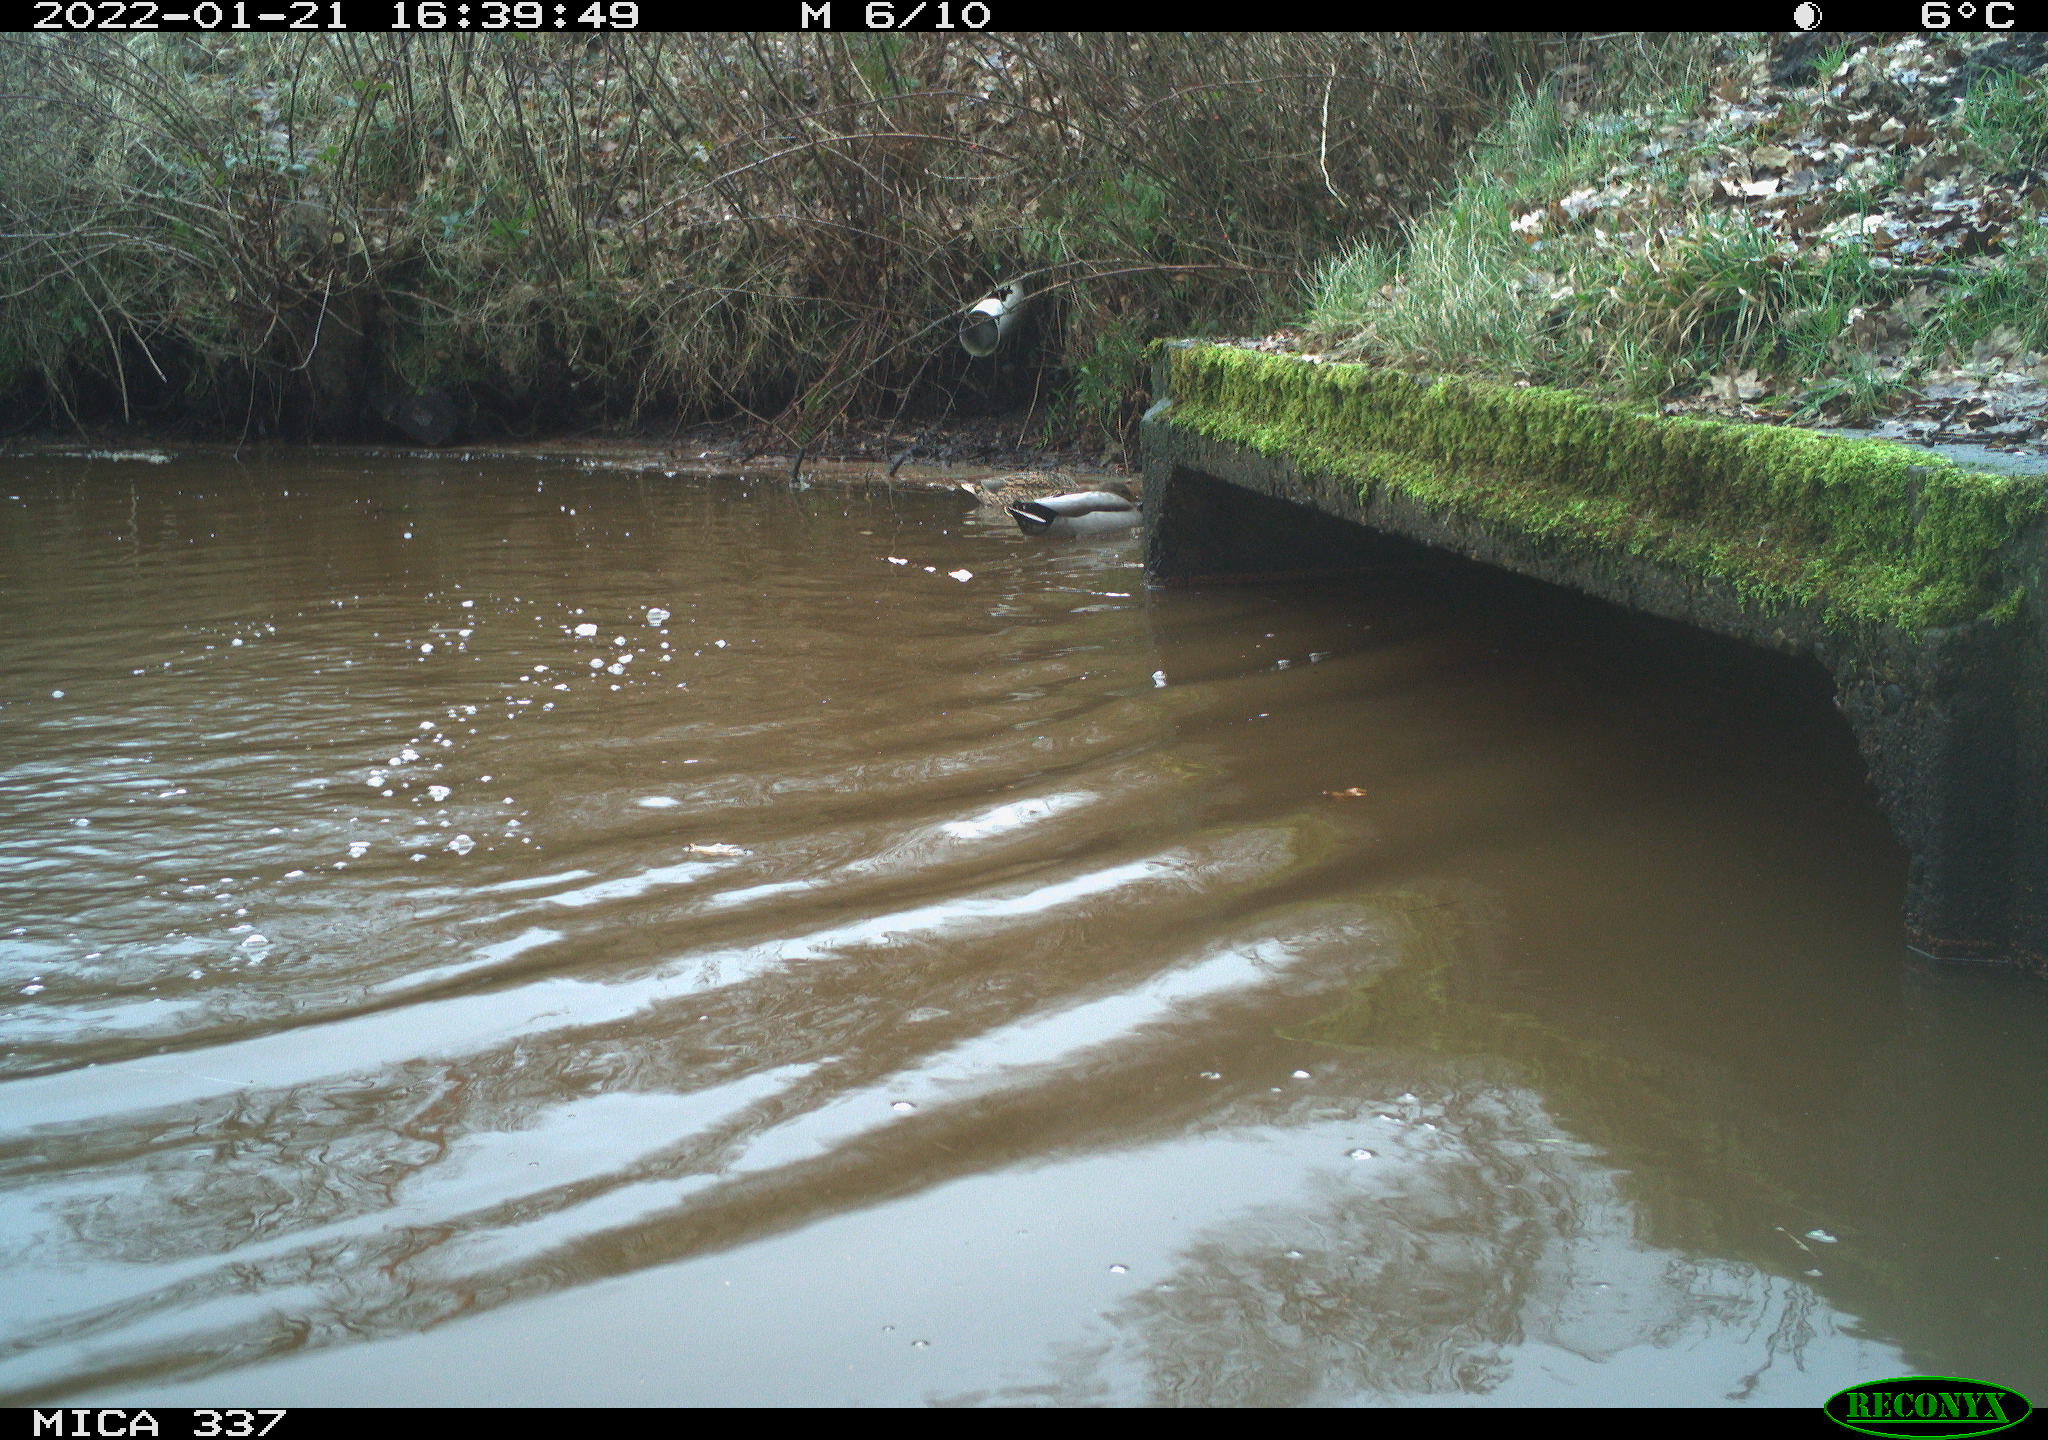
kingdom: Animalia
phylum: Chordata
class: Aves
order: Anseriformes
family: Anatidae
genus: Anas
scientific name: Anas platyrhynchos
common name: Mallard
